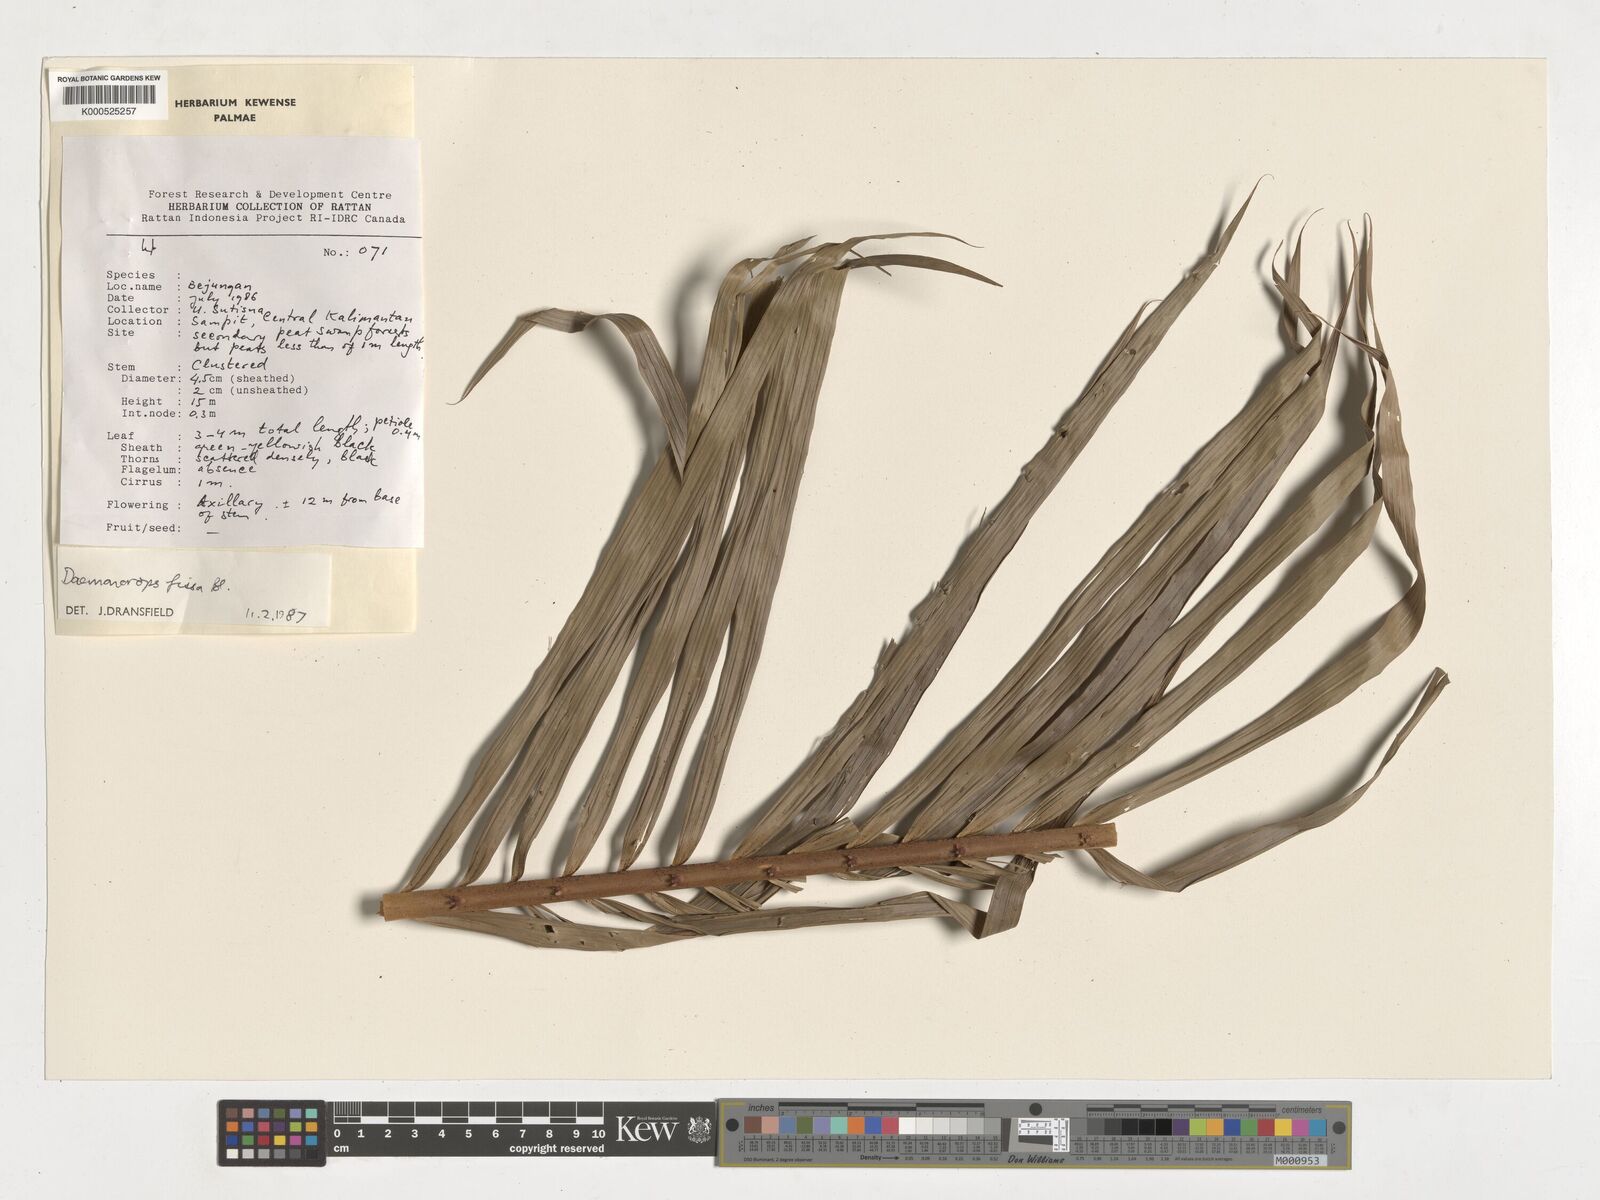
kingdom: Plantae
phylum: Tracheophyta
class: Liliopsida
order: Arecales
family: Arecaceae
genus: Calamus
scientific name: Calamus melanochaetes
